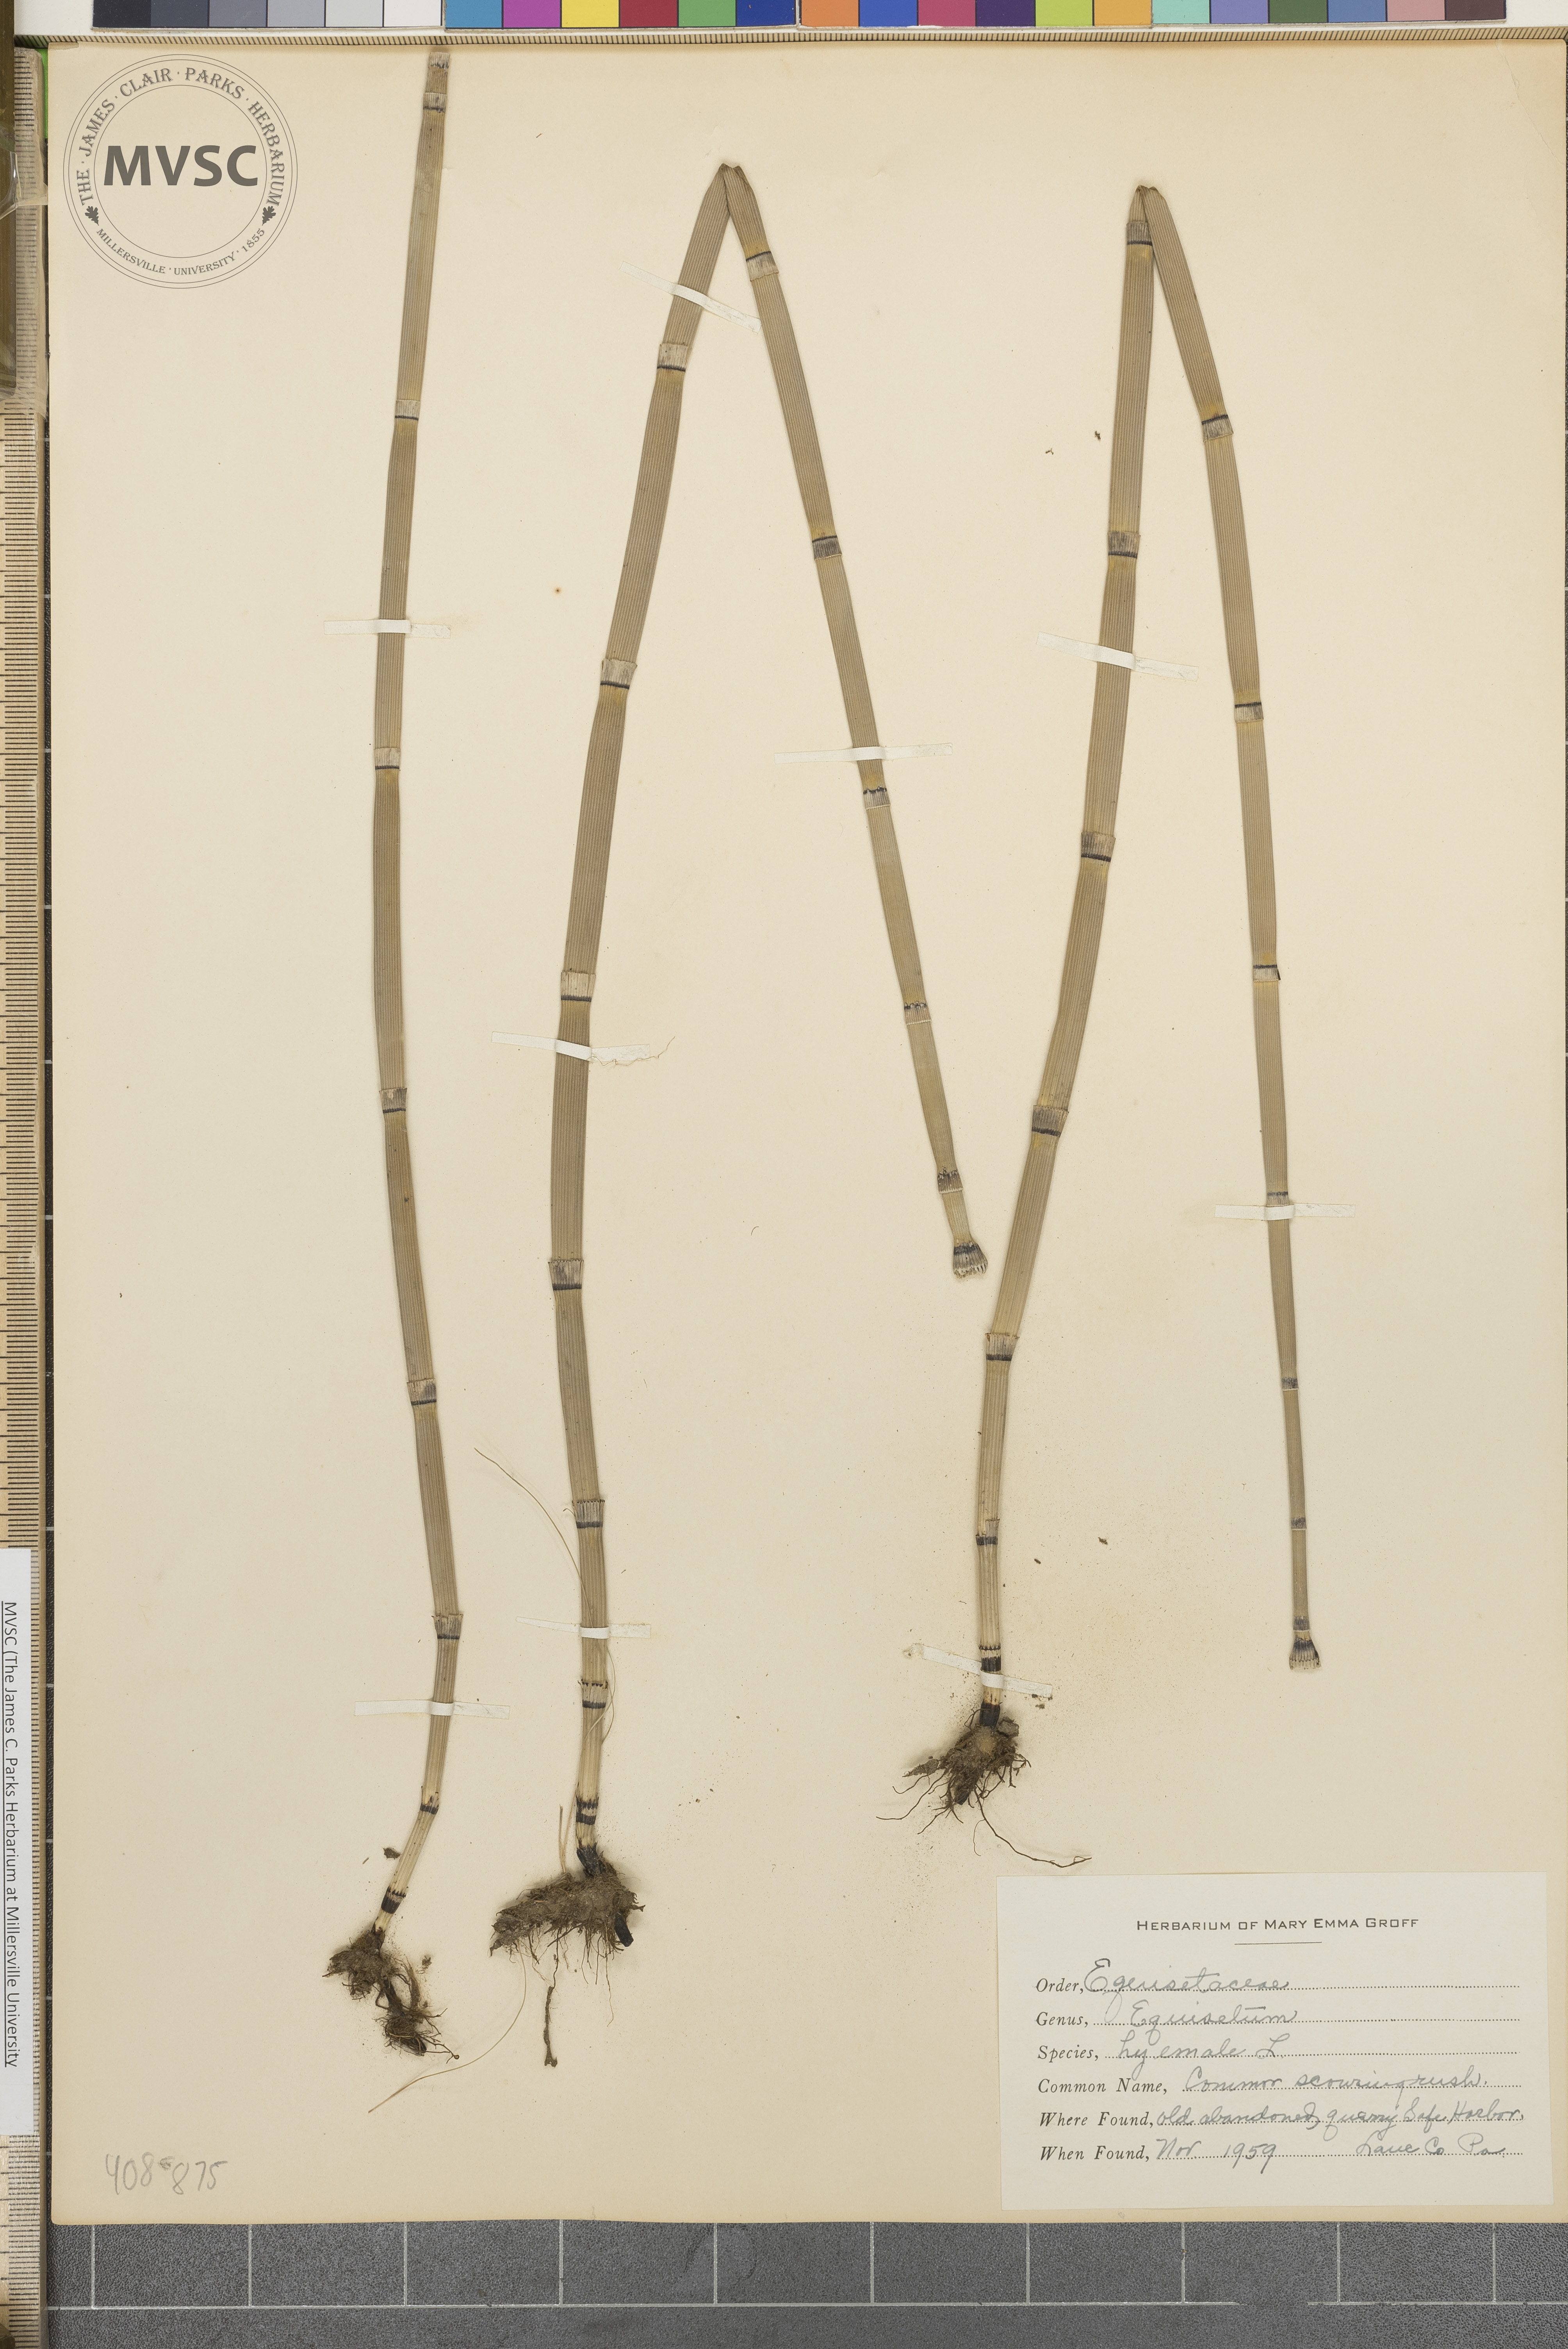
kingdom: Plantae
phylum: Tracheophyta
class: Polypodiopsida
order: Equisetales
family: Equisetaceae
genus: Equisetum
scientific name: Equisetum hyemale
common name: Rough horsetail
